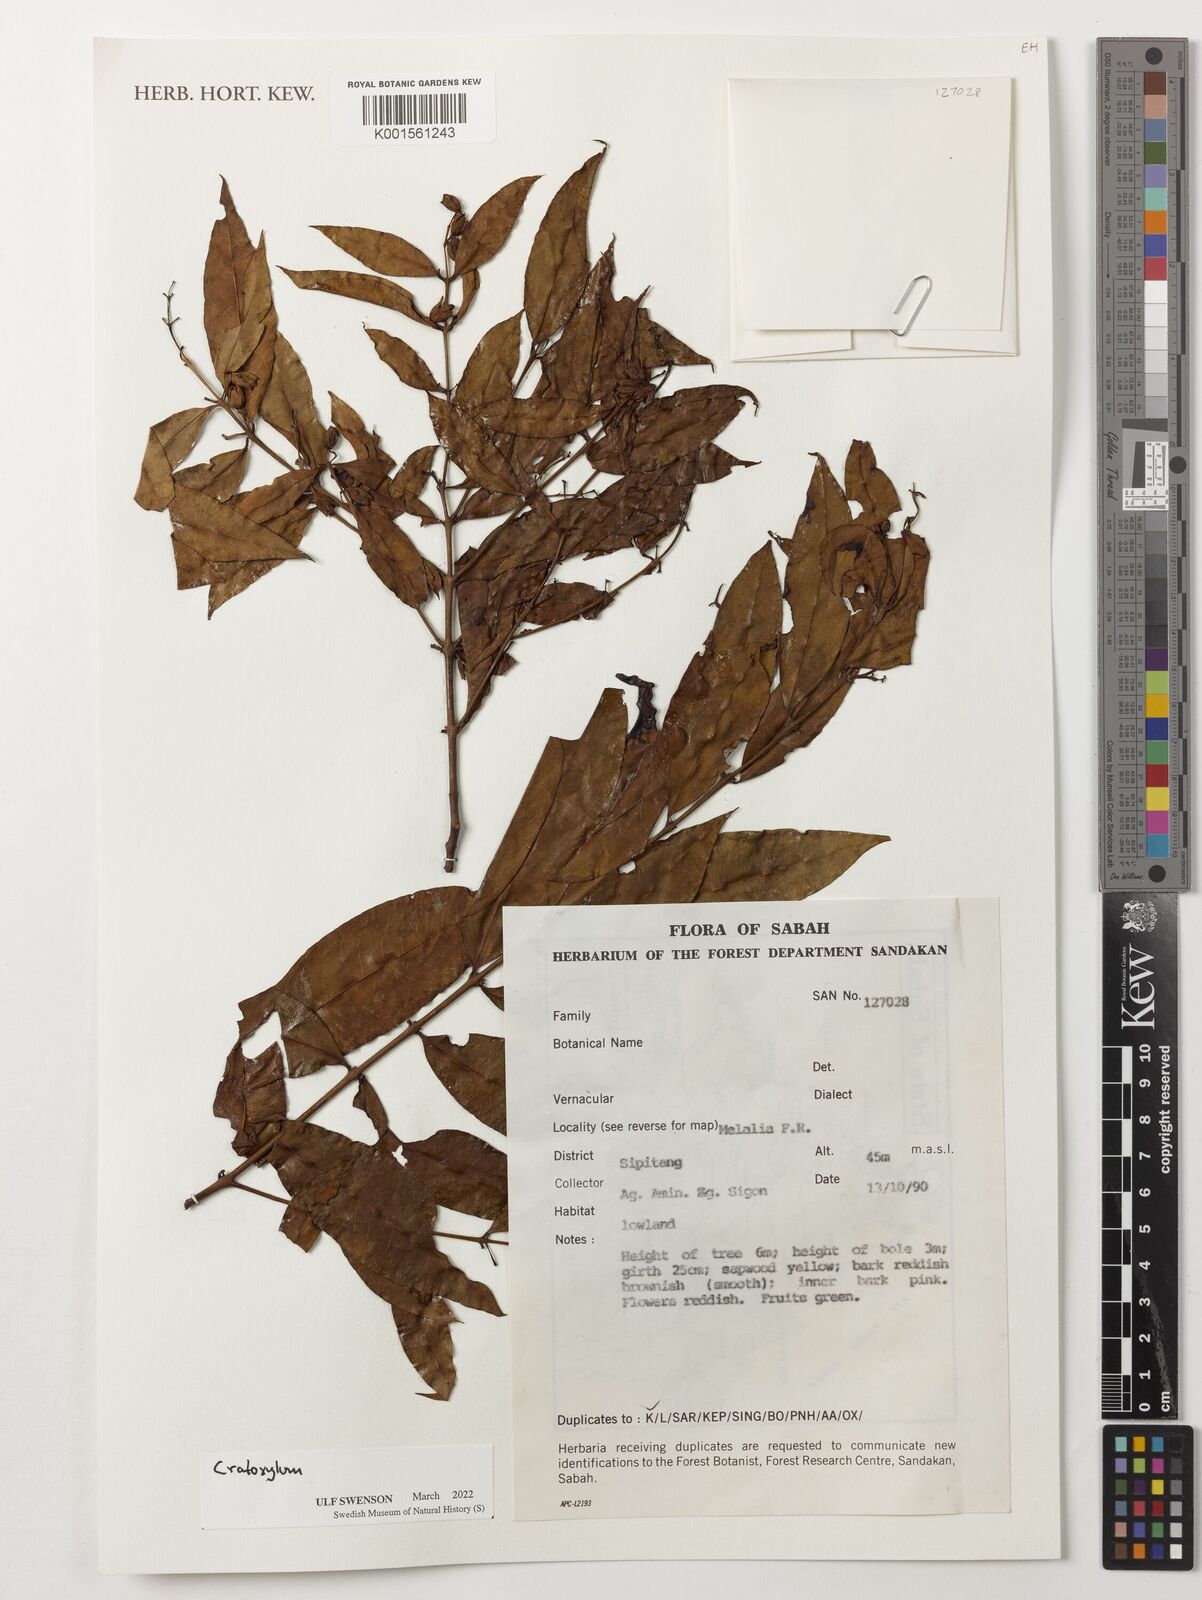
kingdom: Plantae
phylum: Tracheophyta
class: Magnoliopsida
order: Malpighiales
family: Hypericaceae
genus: Cratoxylum
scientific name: Cratoxylum
